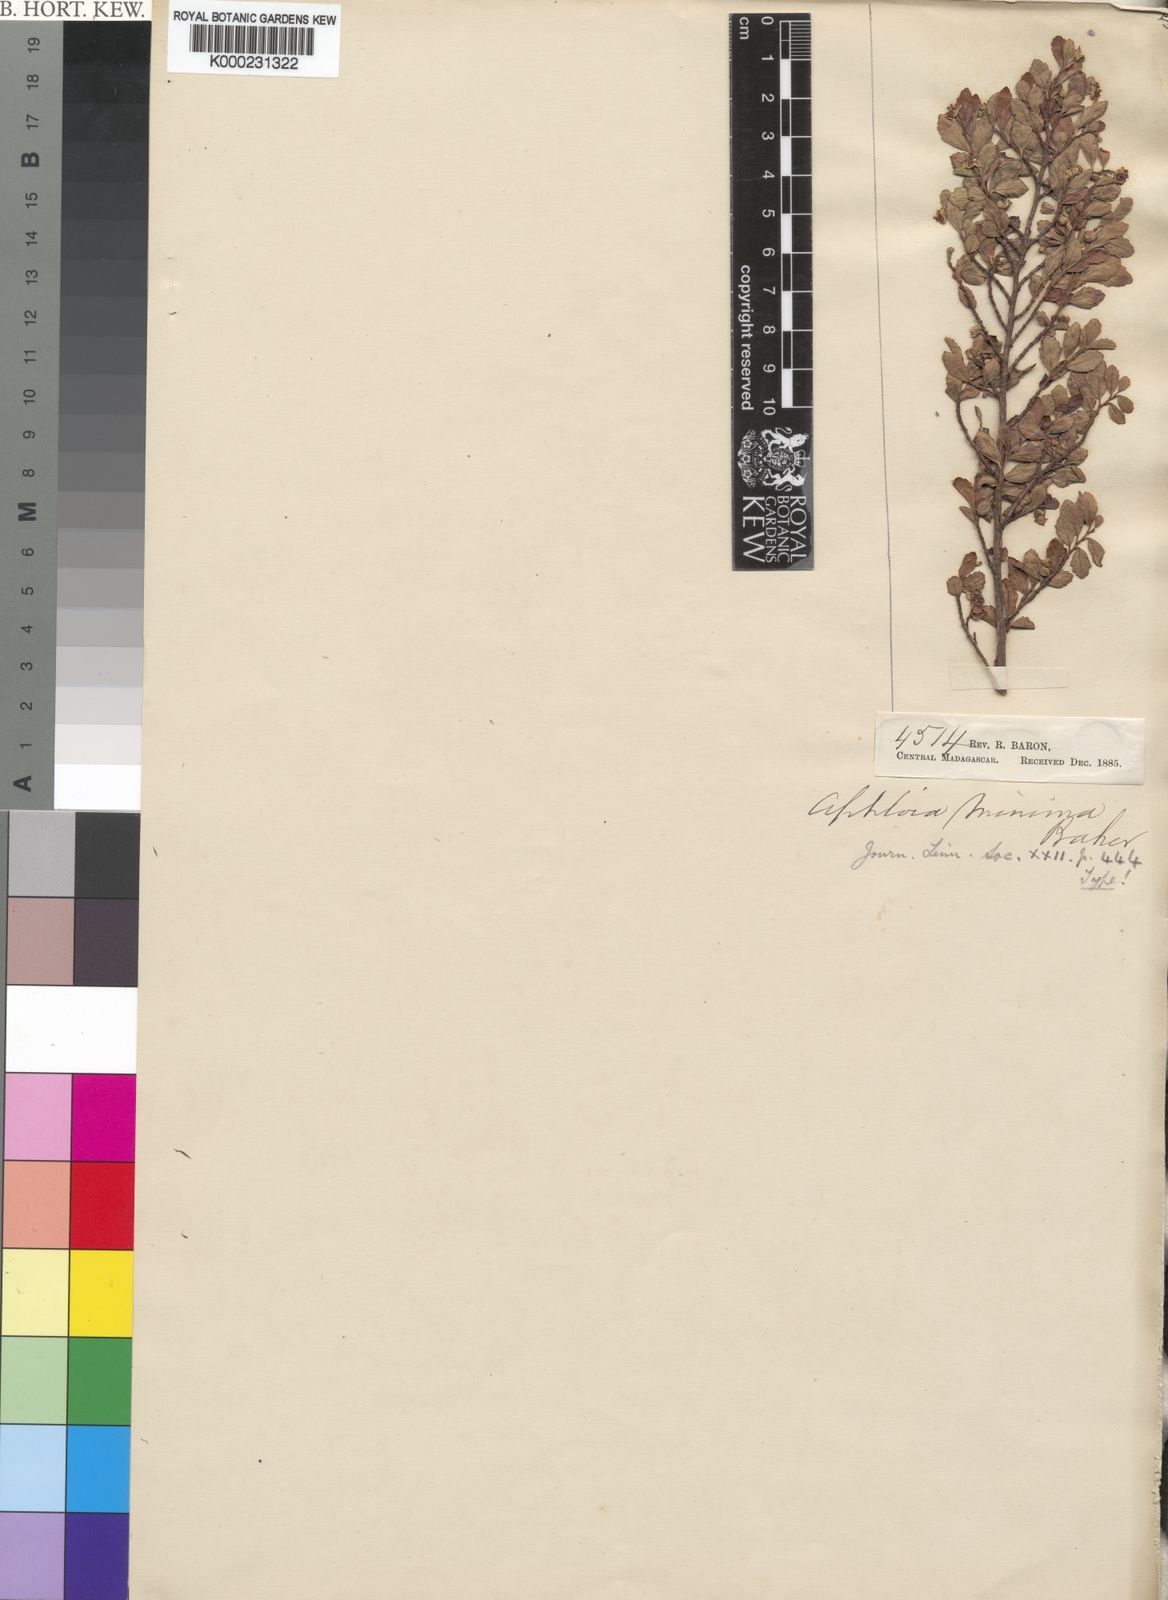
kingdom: Plantae
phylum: Tracheophyta
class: Magnoliopsida
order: Malpighiales
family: Salicaceae
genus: Ludia
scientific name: Ludia
